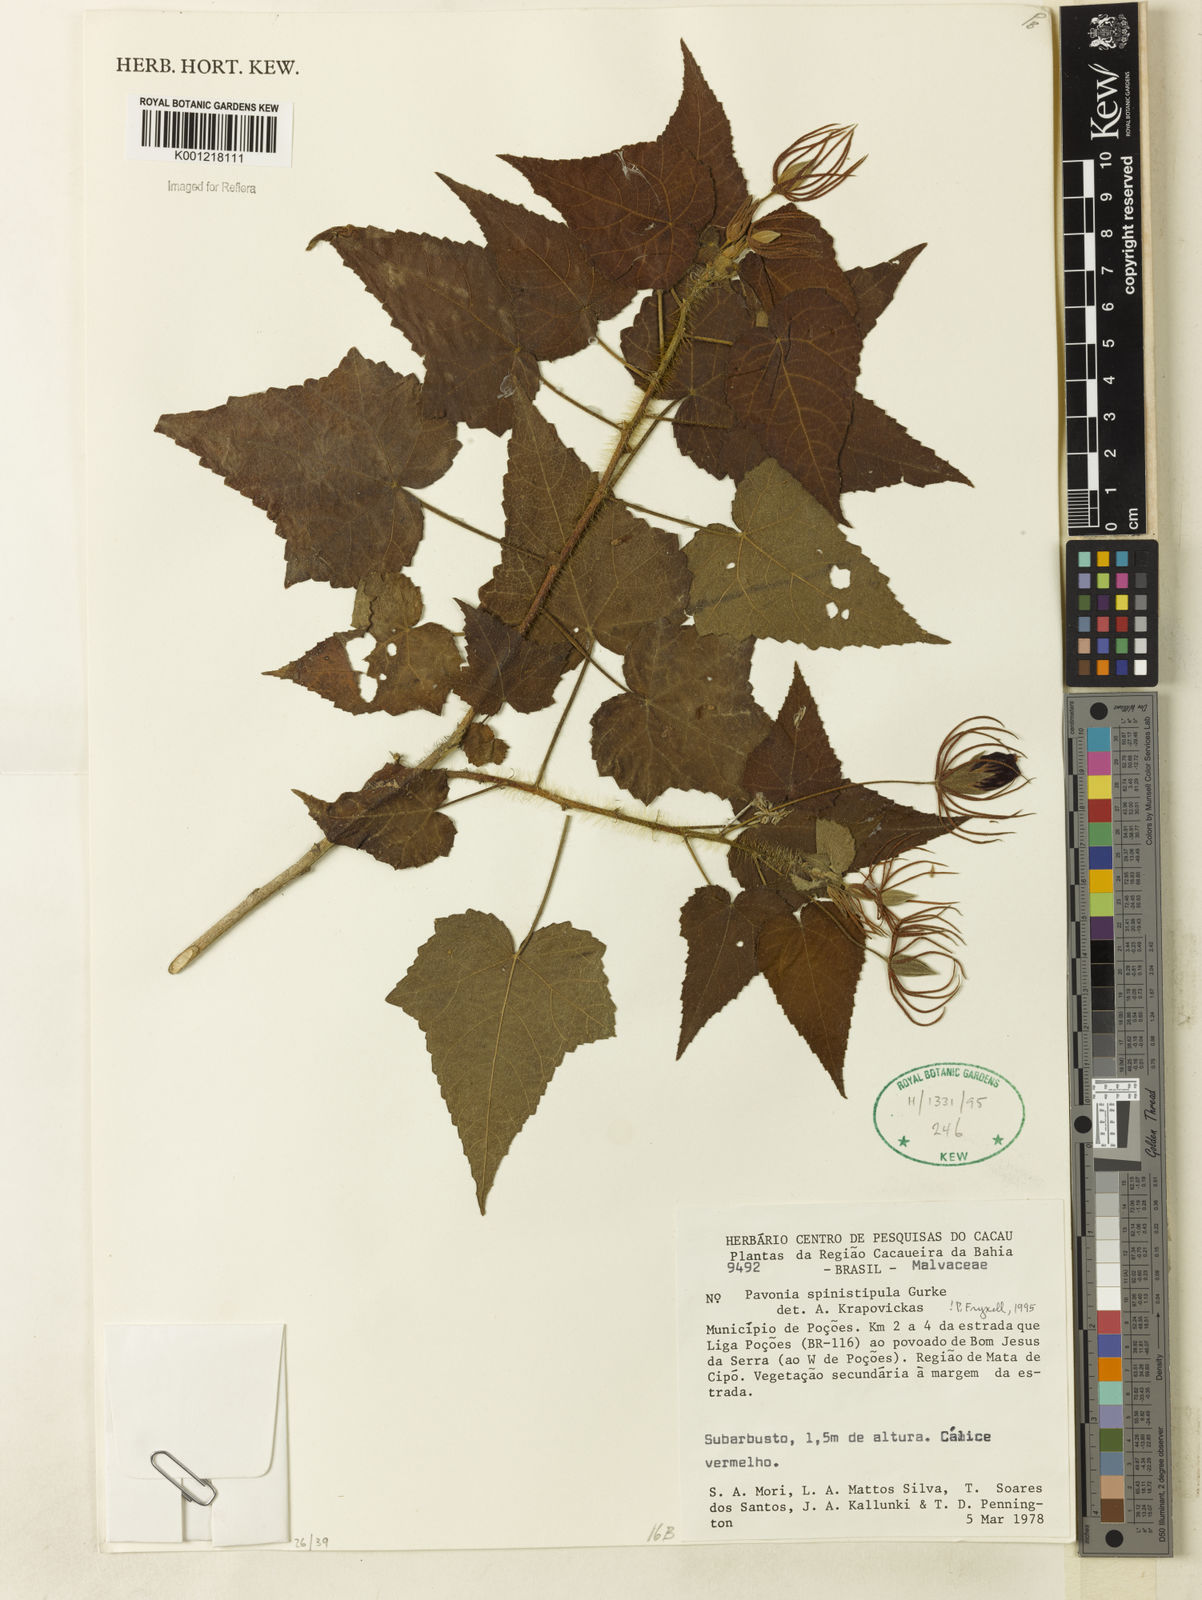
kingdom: Plantae
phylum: Tracheophyta
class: Magnoliopsida
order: Malvales
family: Malvaceae
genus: Pavonia
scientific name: Pavonia
